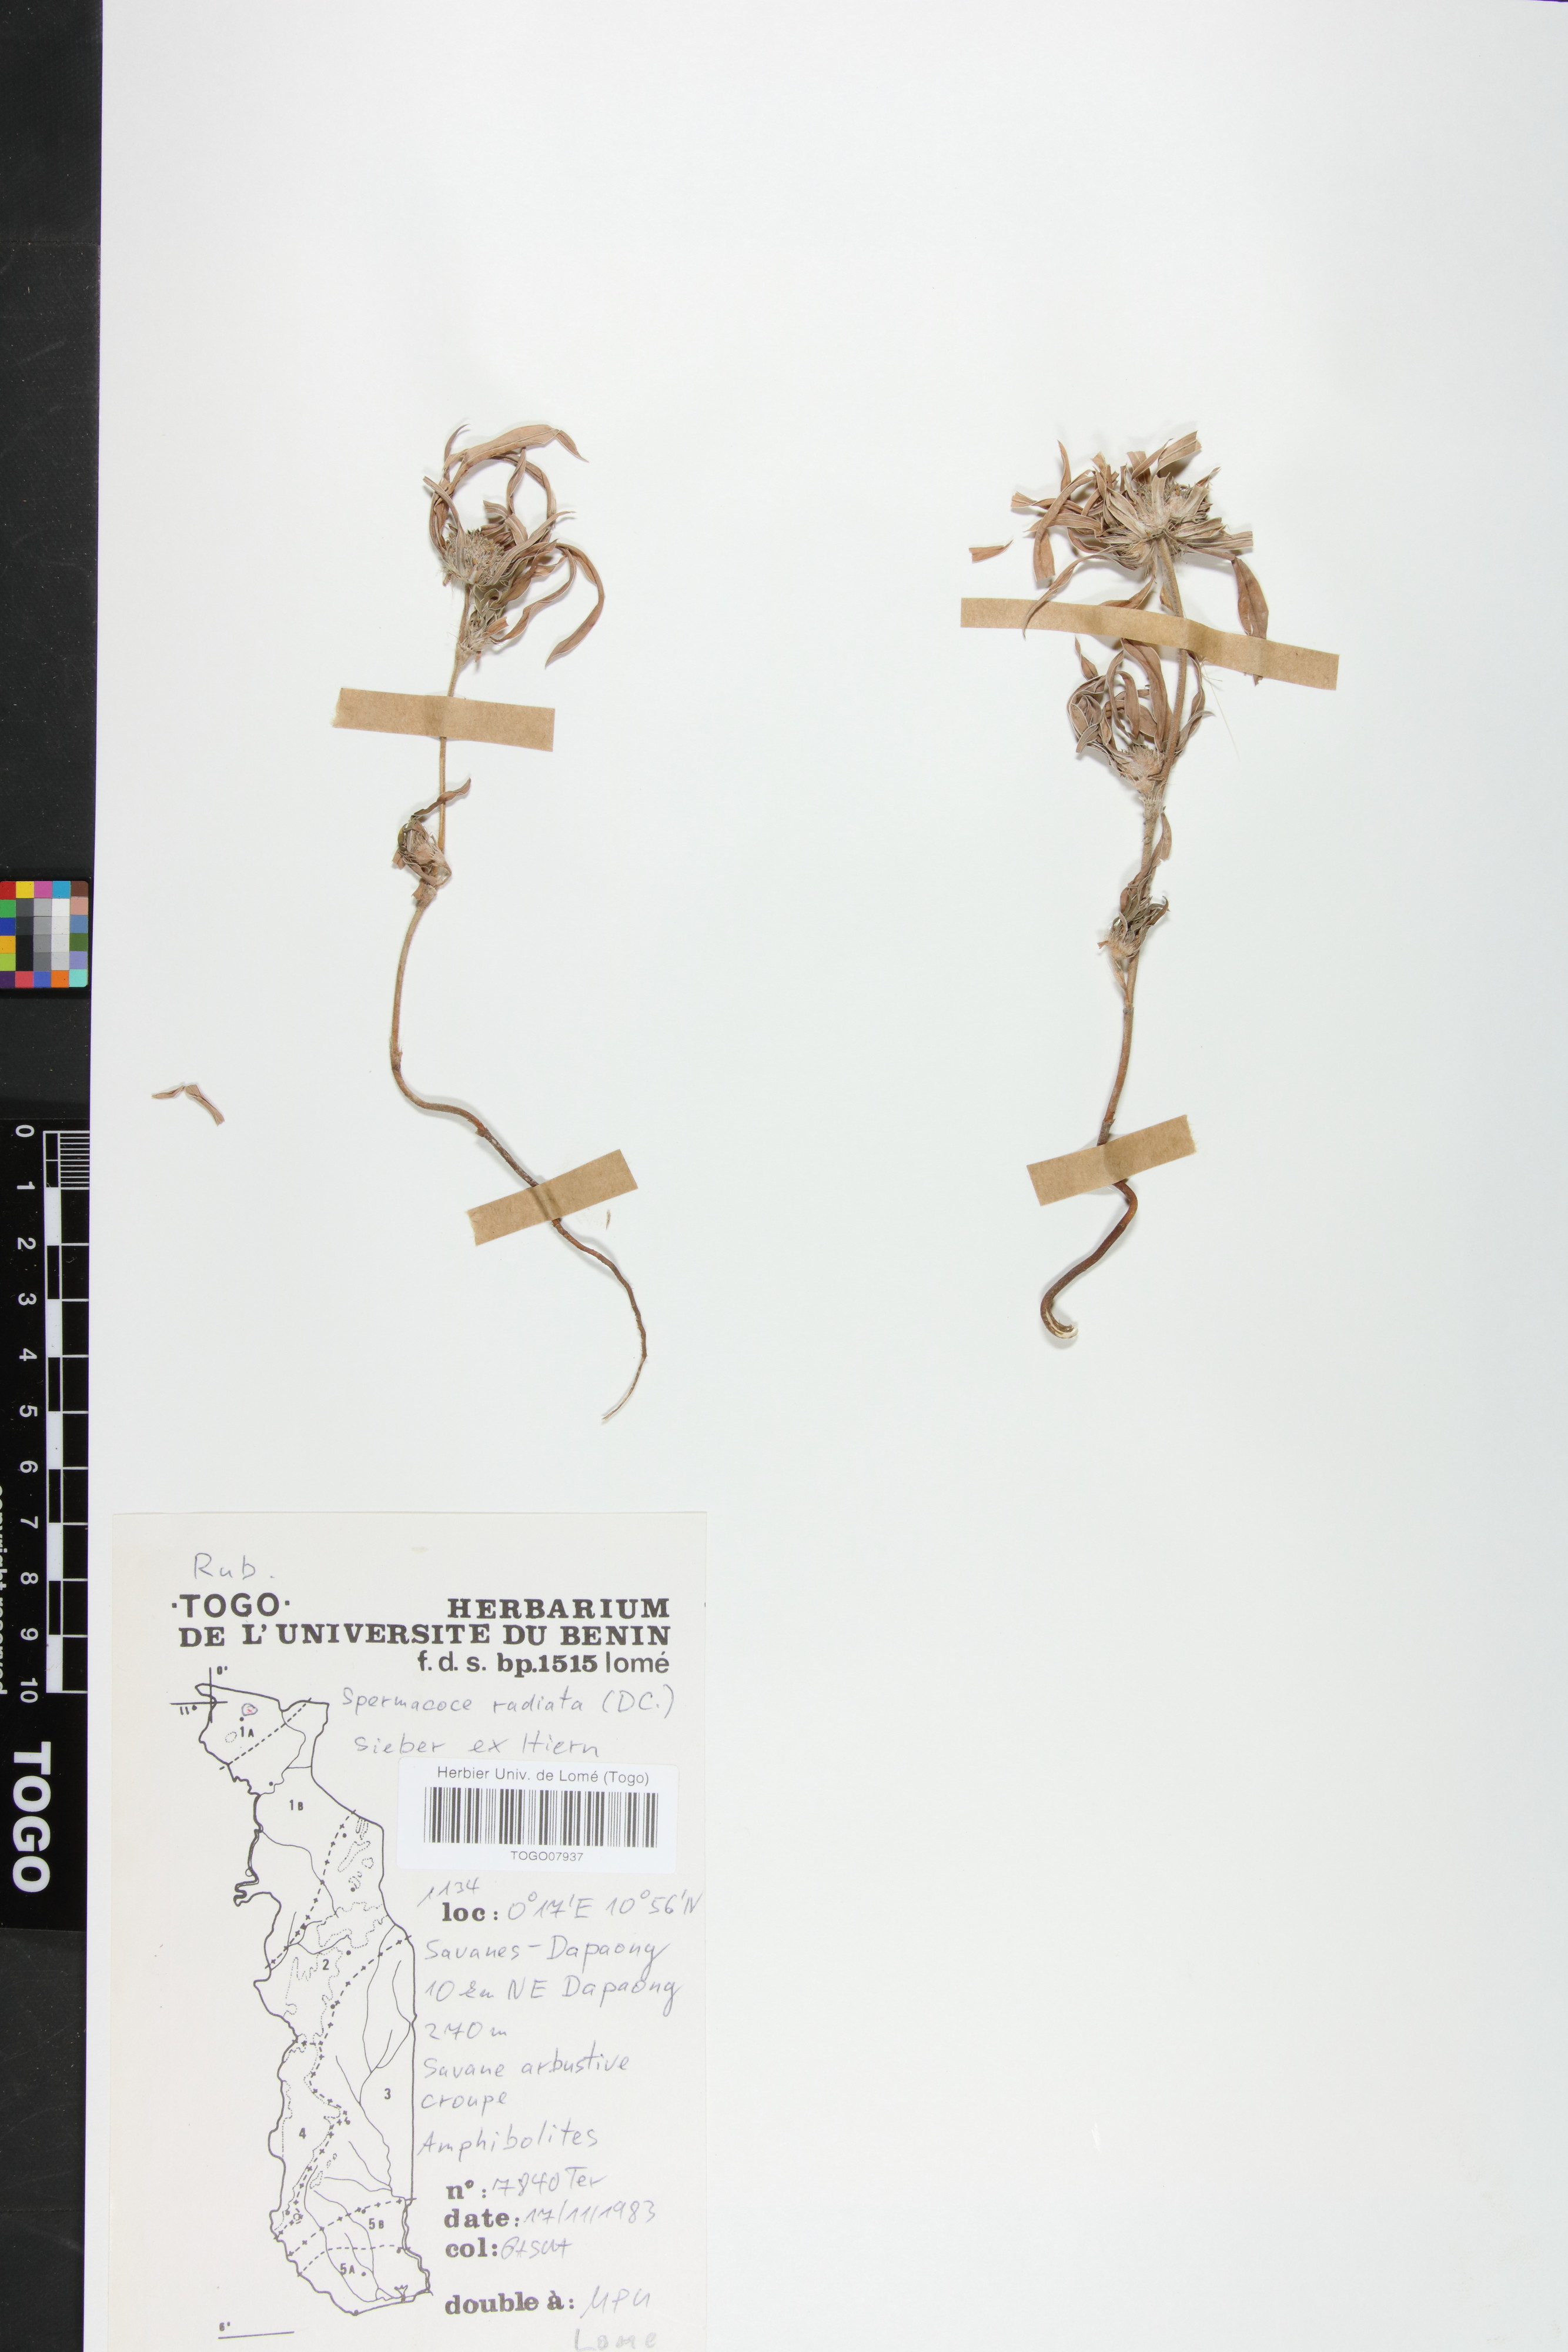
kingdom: Plantae
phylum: Tracheophyta
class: Magnoliopsida
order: Gentianales
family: Rubiaceae
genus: Spermacoce
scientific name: Spermacoce radiata
